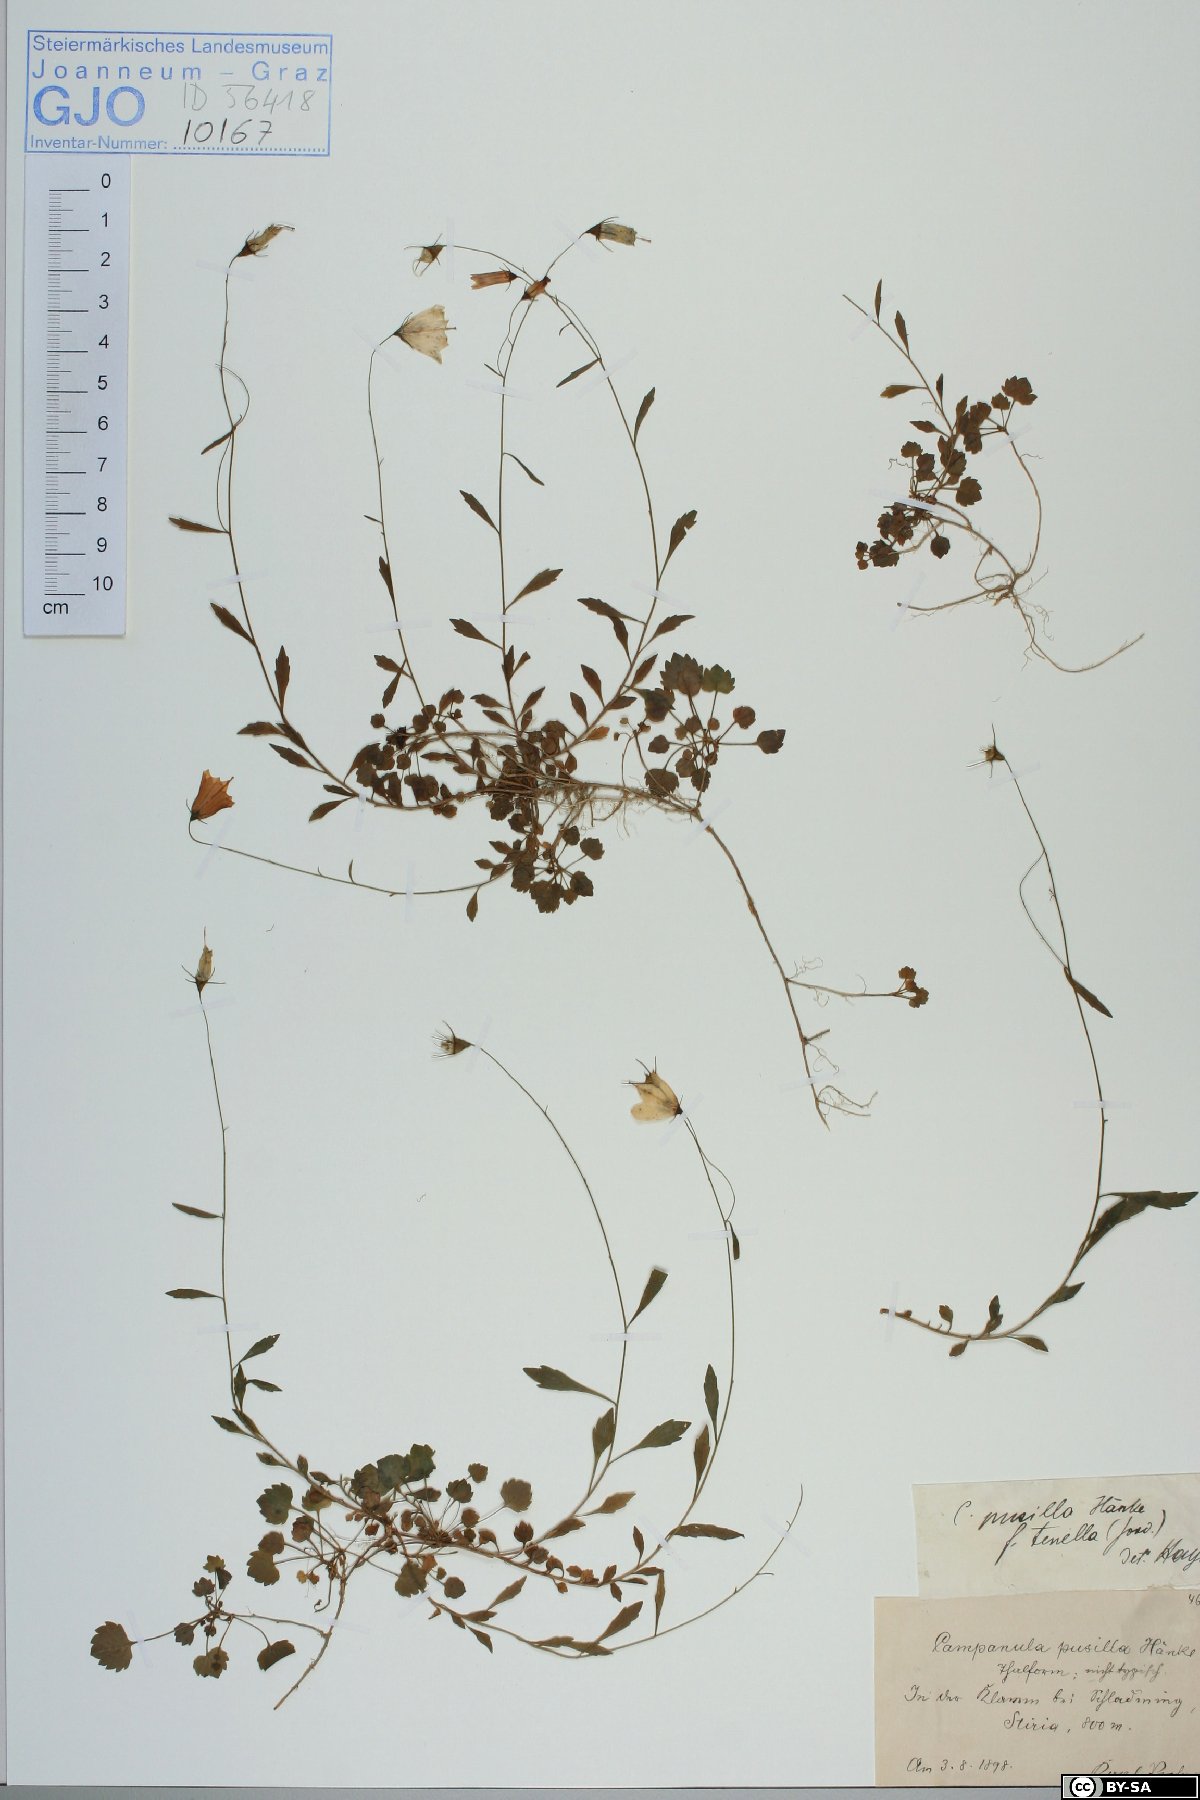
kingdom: Plantae
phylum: Tracheophyta
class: Magnoliopsida
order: Asterales
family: Campanulaceae
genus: Campanula
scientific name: Campanula cochleariifolia
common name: Fairies'-thimbles
